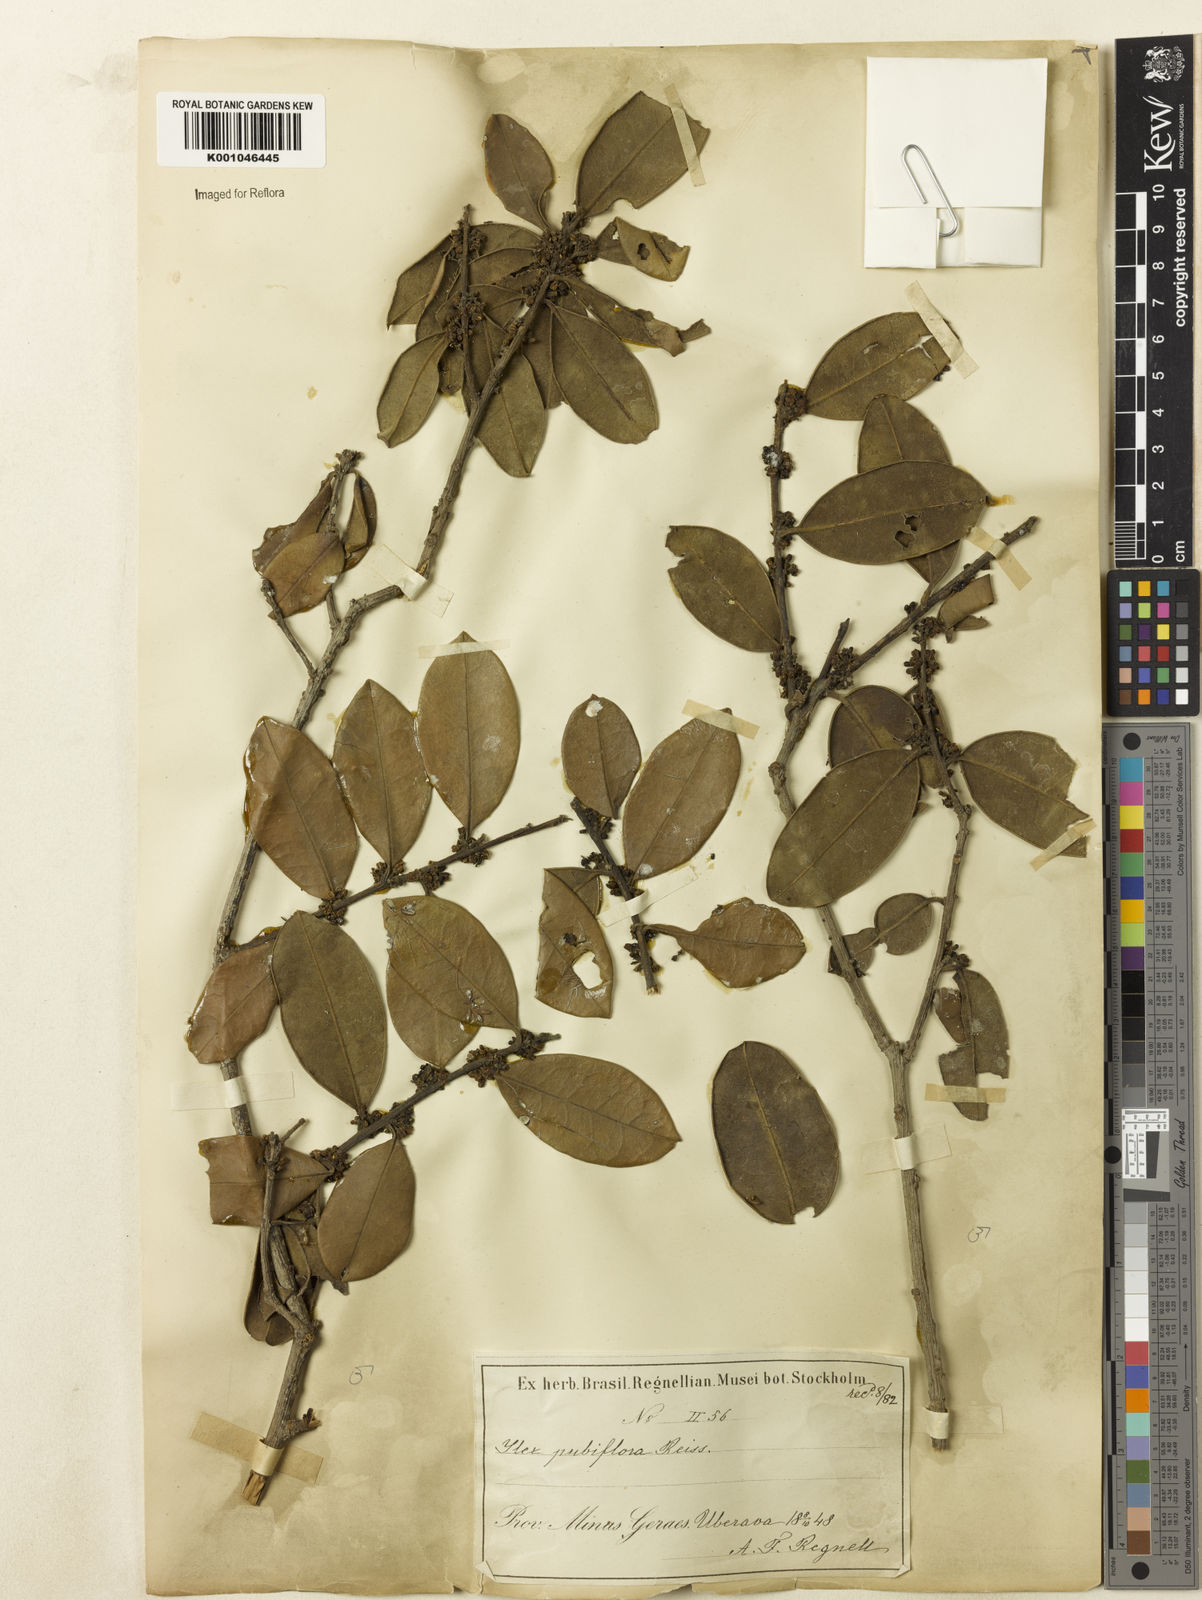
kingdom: Plantae
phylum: Tracheophyta
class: Magnoliopsida
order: Aquifoliales
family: Aquifoliaceae
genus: Ilex
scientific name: Ilex brasiliensis
